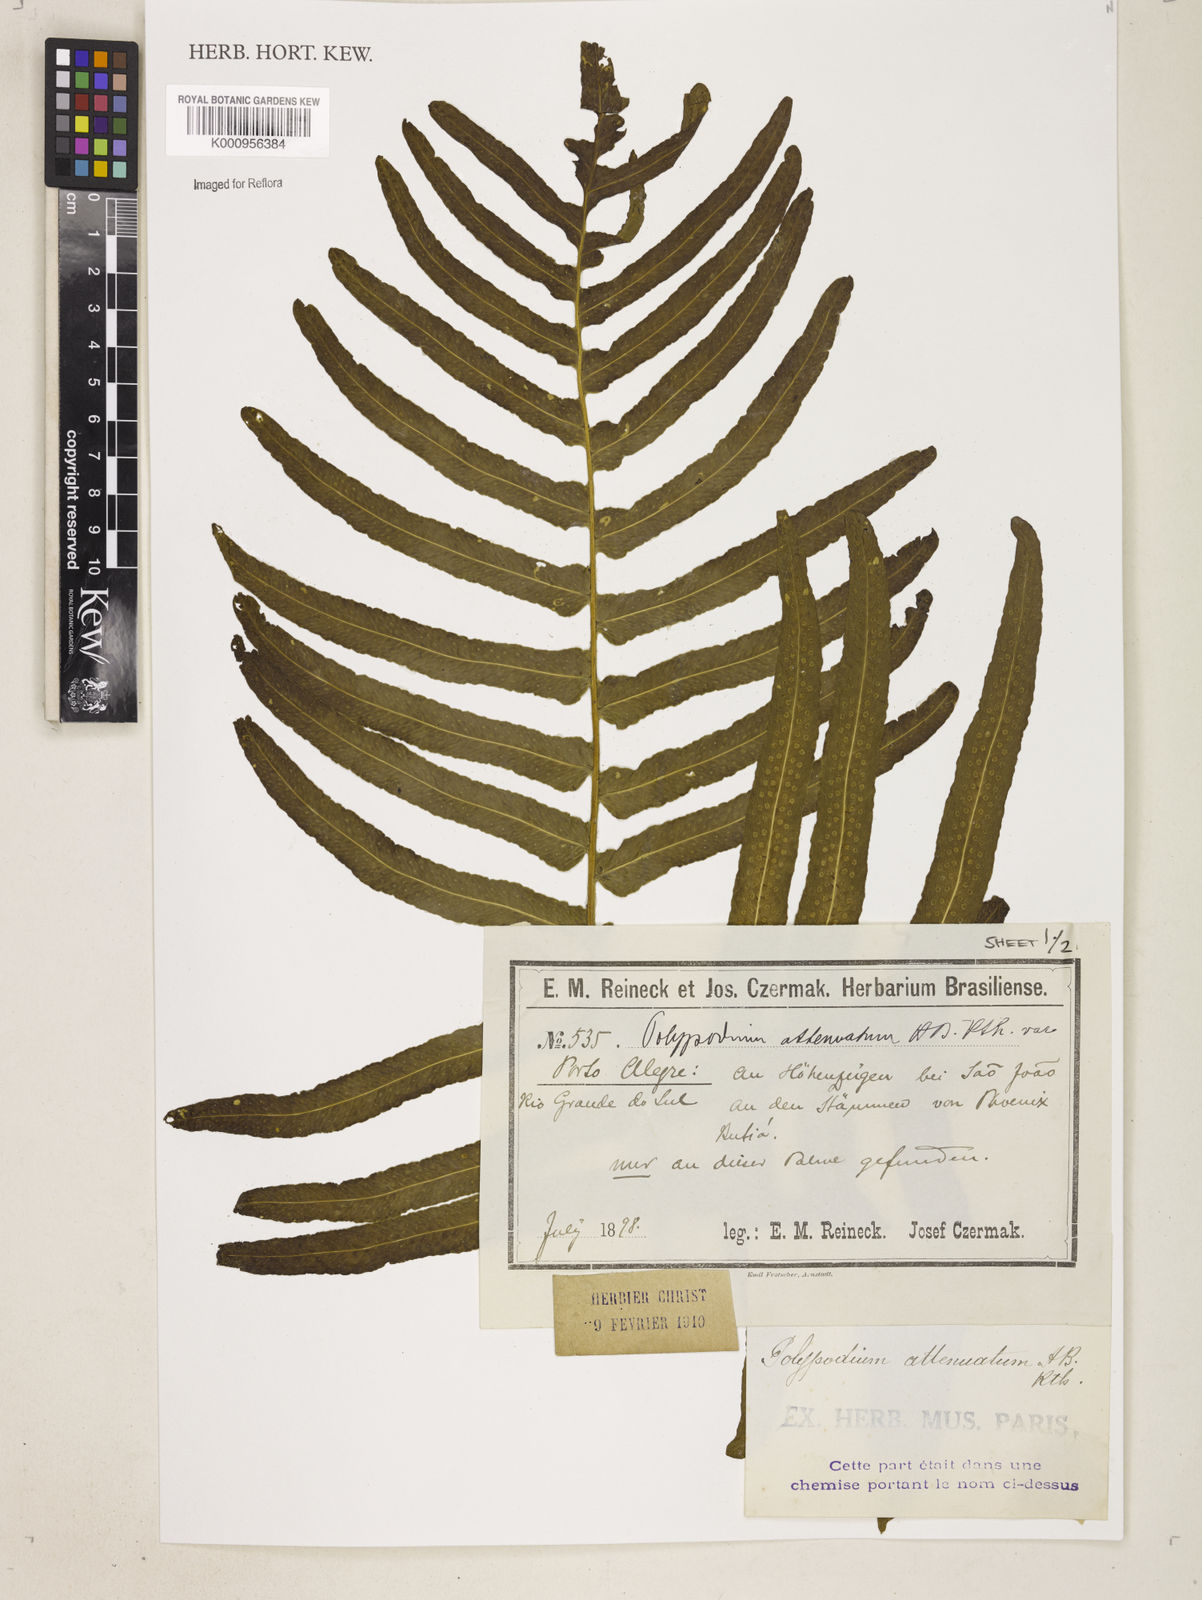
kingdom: Plantae
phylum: Tracheophyta
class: Polypodiopsida
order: Polypodiales
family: Polypodiaceae
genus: Serpocaulon
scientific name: Serpocaulon triseriale
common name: Angle-vein fern
